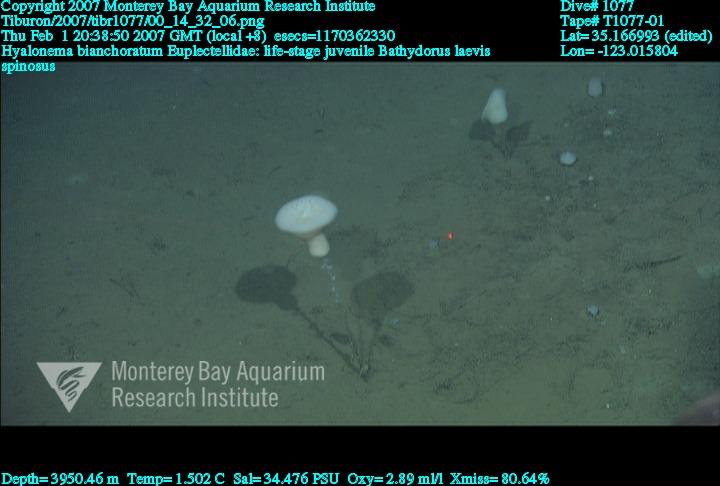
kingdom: Animalia
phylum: Porifera
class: Hexactinellida
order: Lyssacinosida
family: Euplectellidae
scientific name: Euplectellidae
